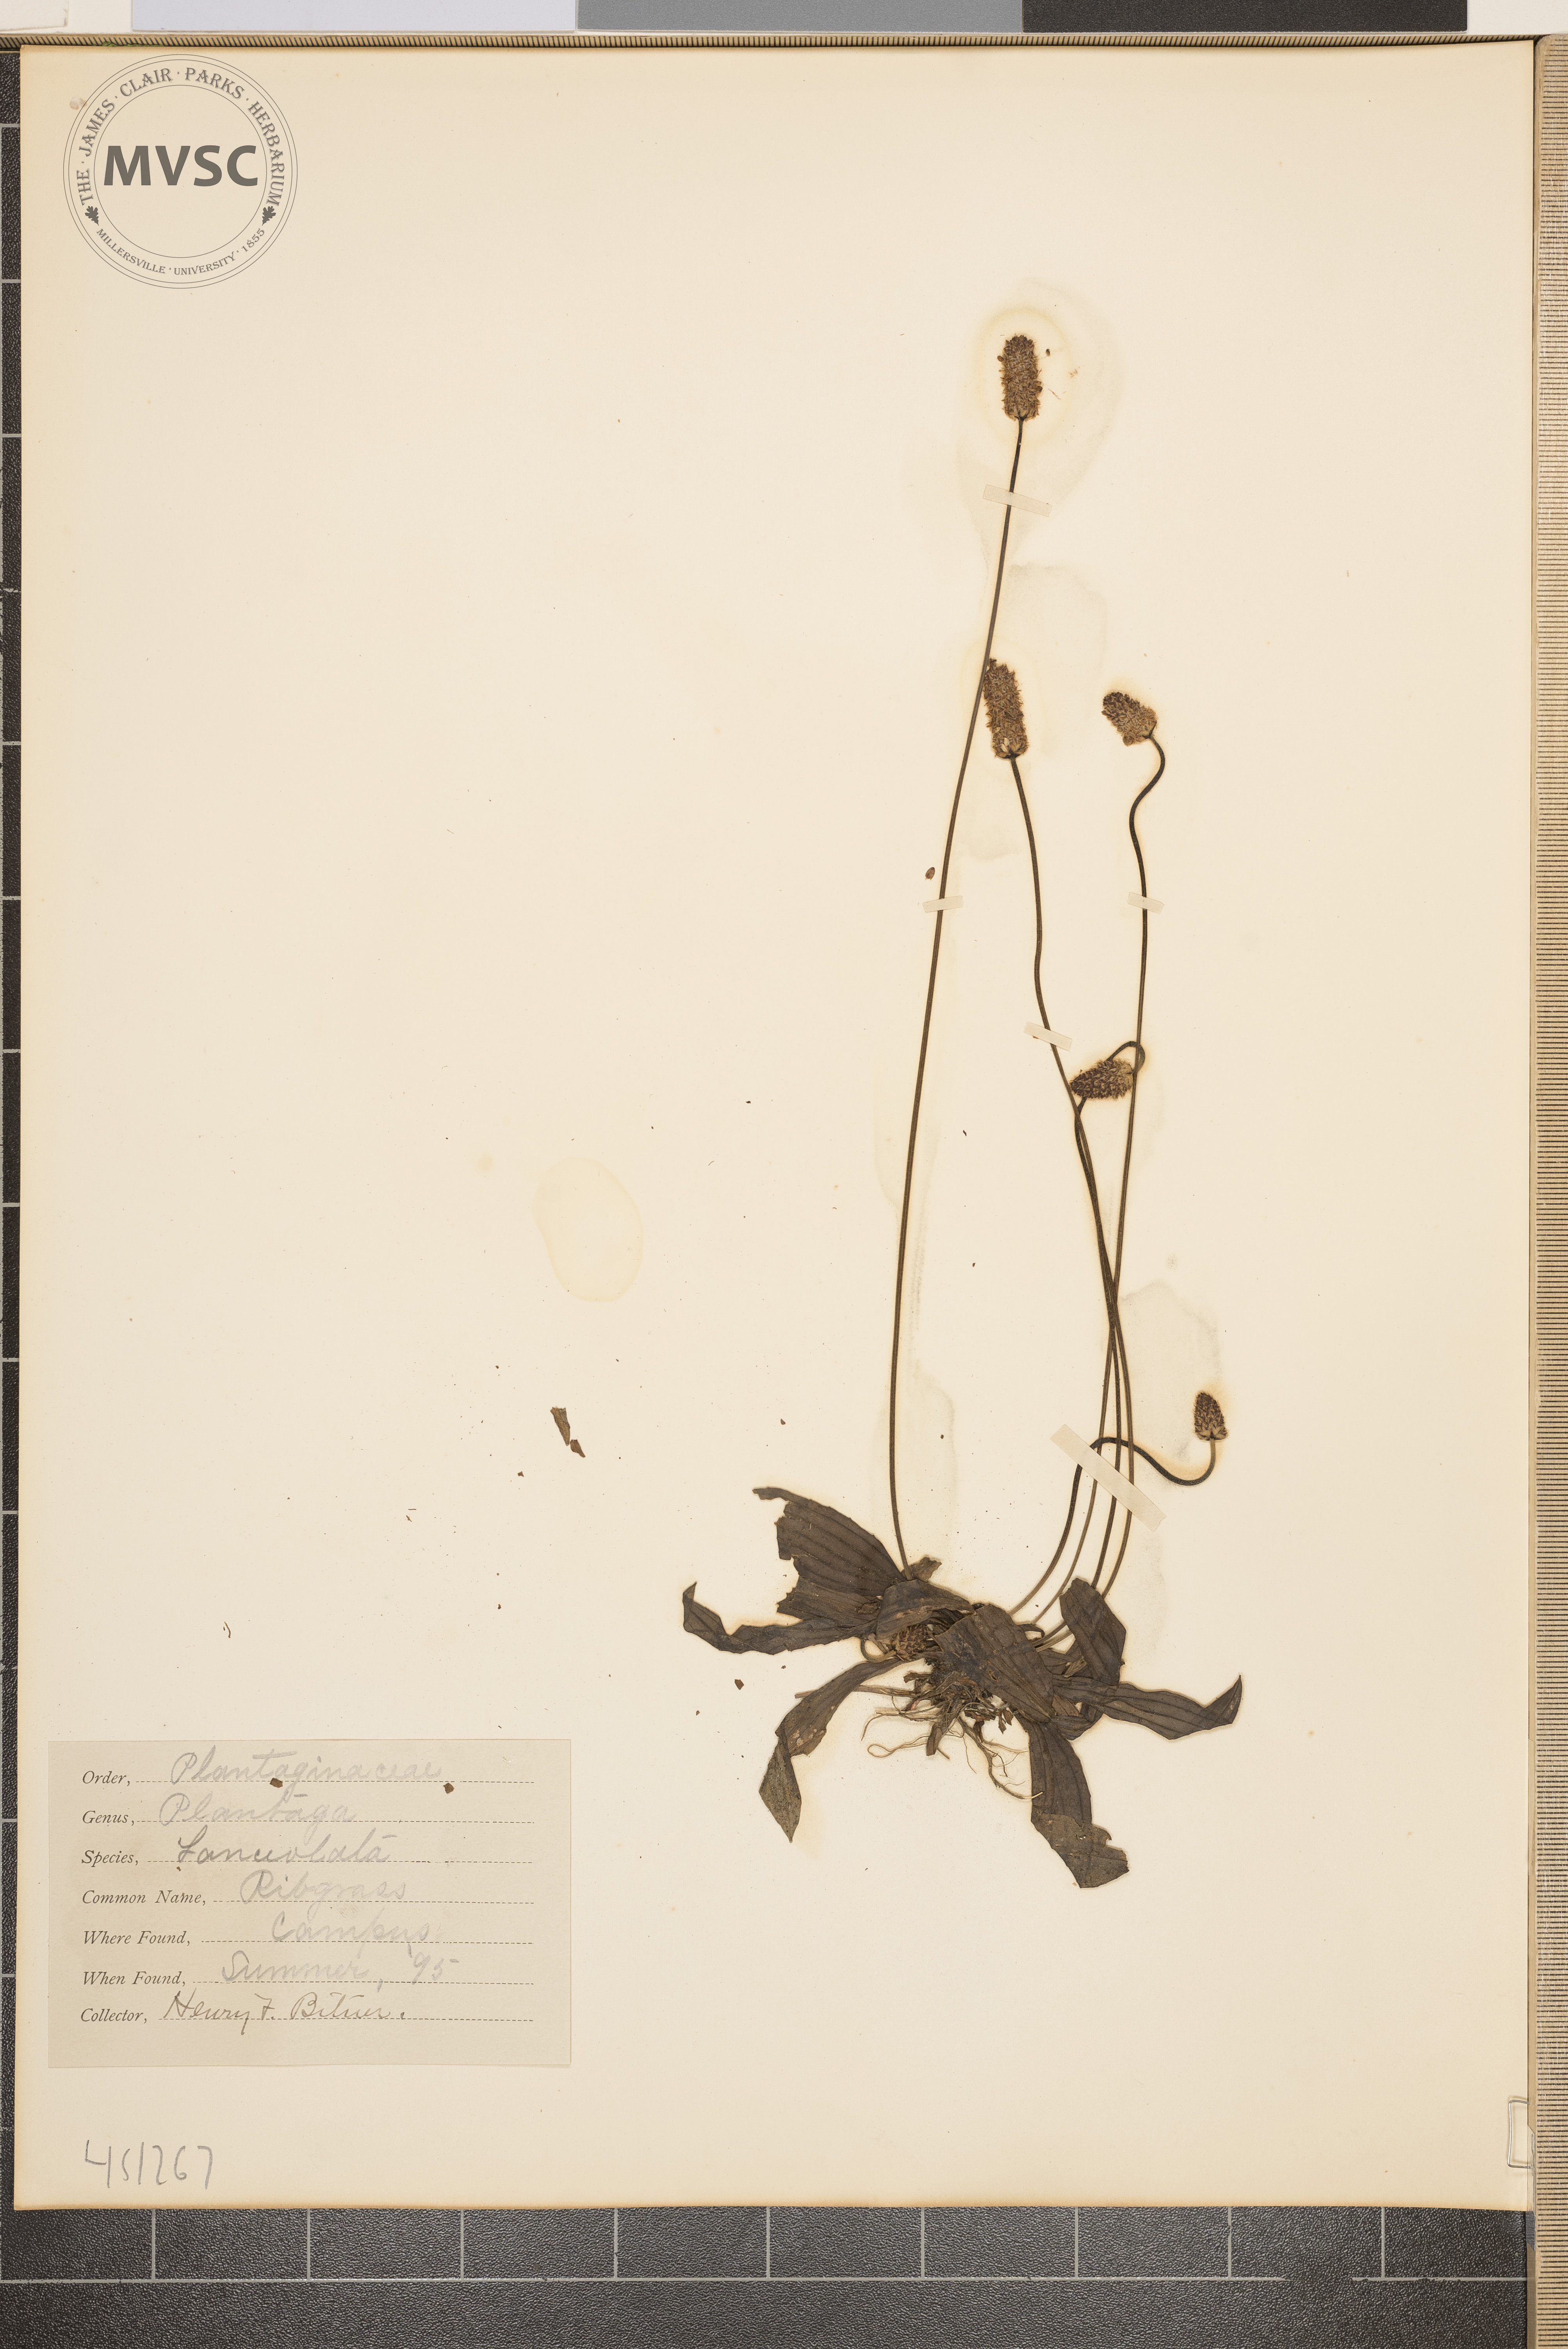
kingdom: Plantae
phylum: Tracheophyta
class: Magnoliopsida
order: Lamiales
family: Plantaginaceae
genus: Plantago
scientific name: Plantago lanceolata
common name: Ribgrass
